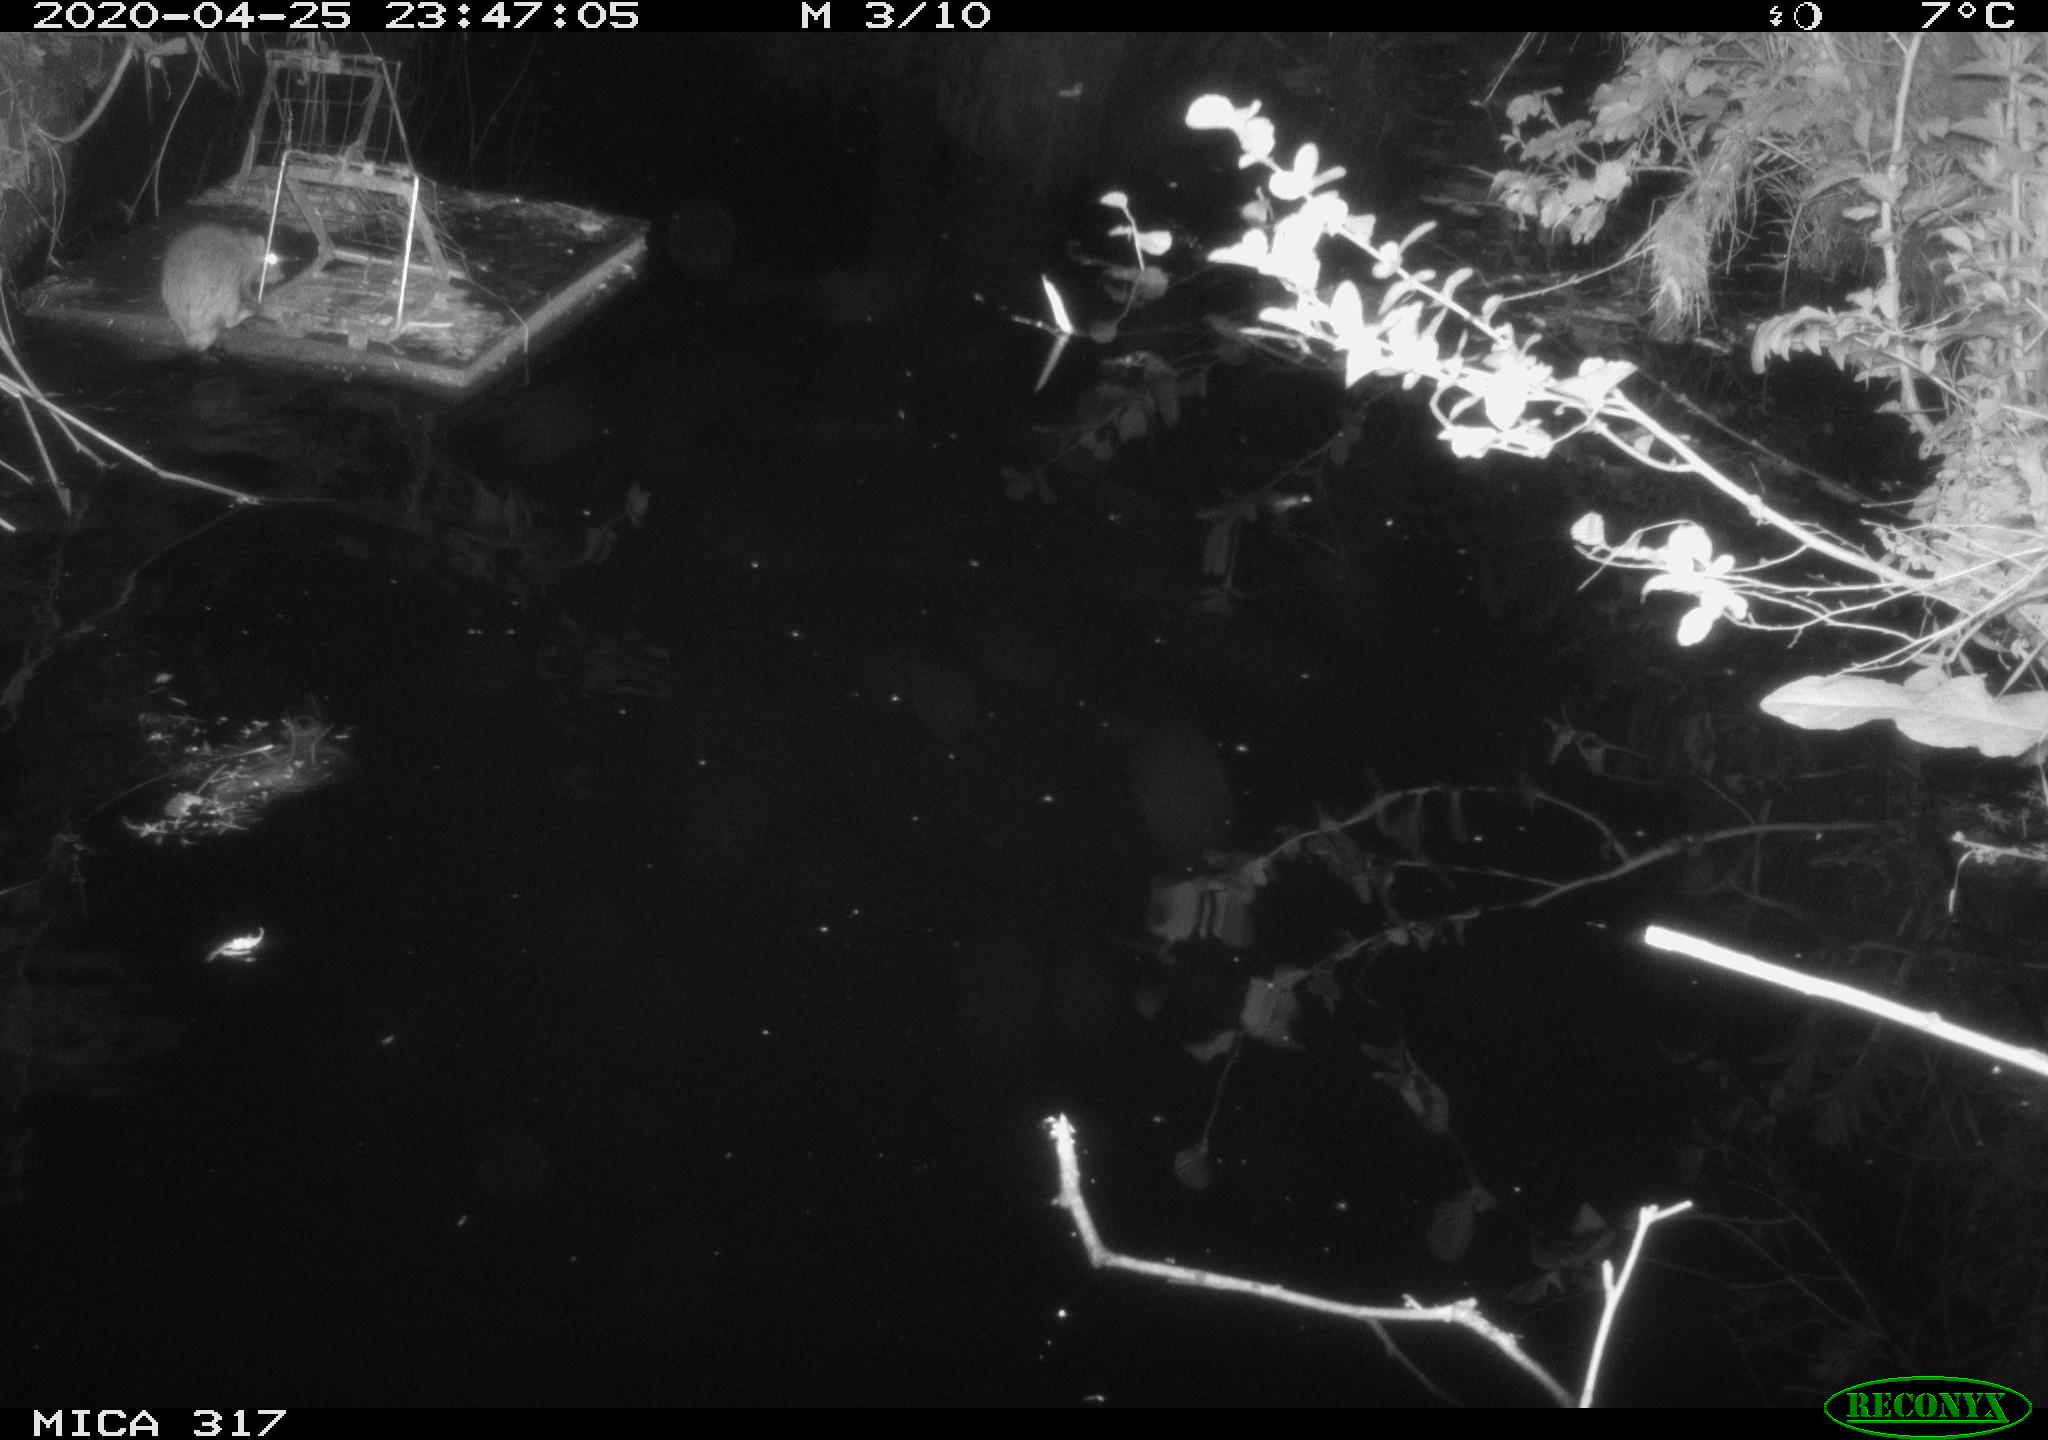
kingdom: Animalia
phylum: Chordata
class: Mammalia
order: Rodentia
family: Muridae
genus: Rattus
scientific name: Rattus norvegicus
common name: Brown rat
